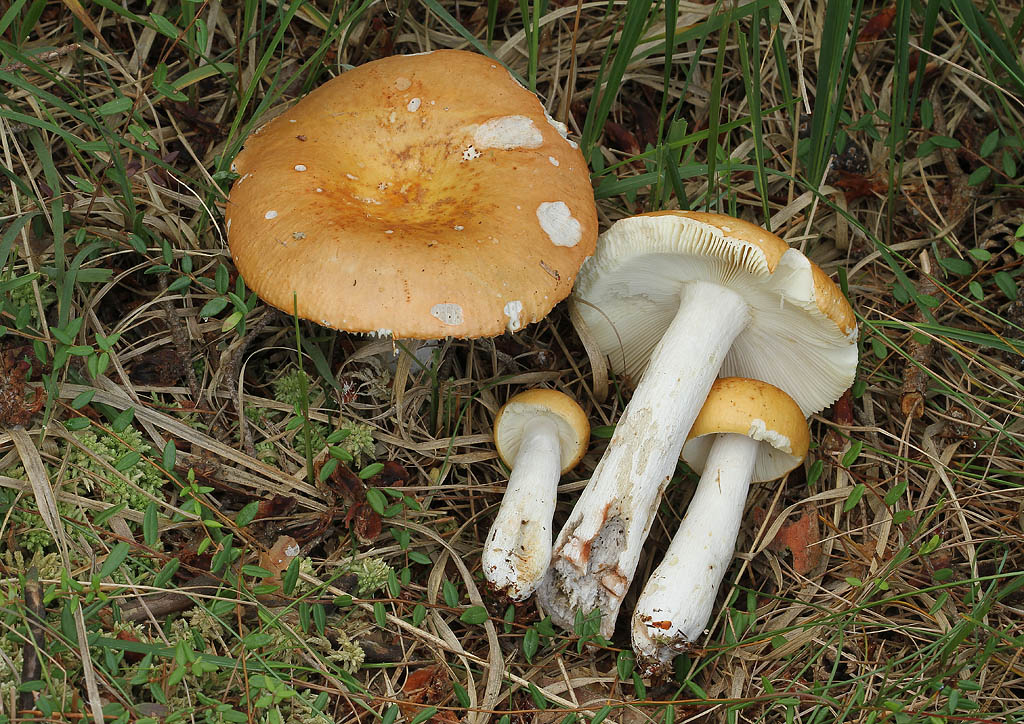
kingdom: Fungi
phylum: Basidiomycota
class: Agaricomycetes
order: Russulales
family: Russulaceae
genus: Russula
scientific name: Russula decolorans
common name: afblegende skørhat
